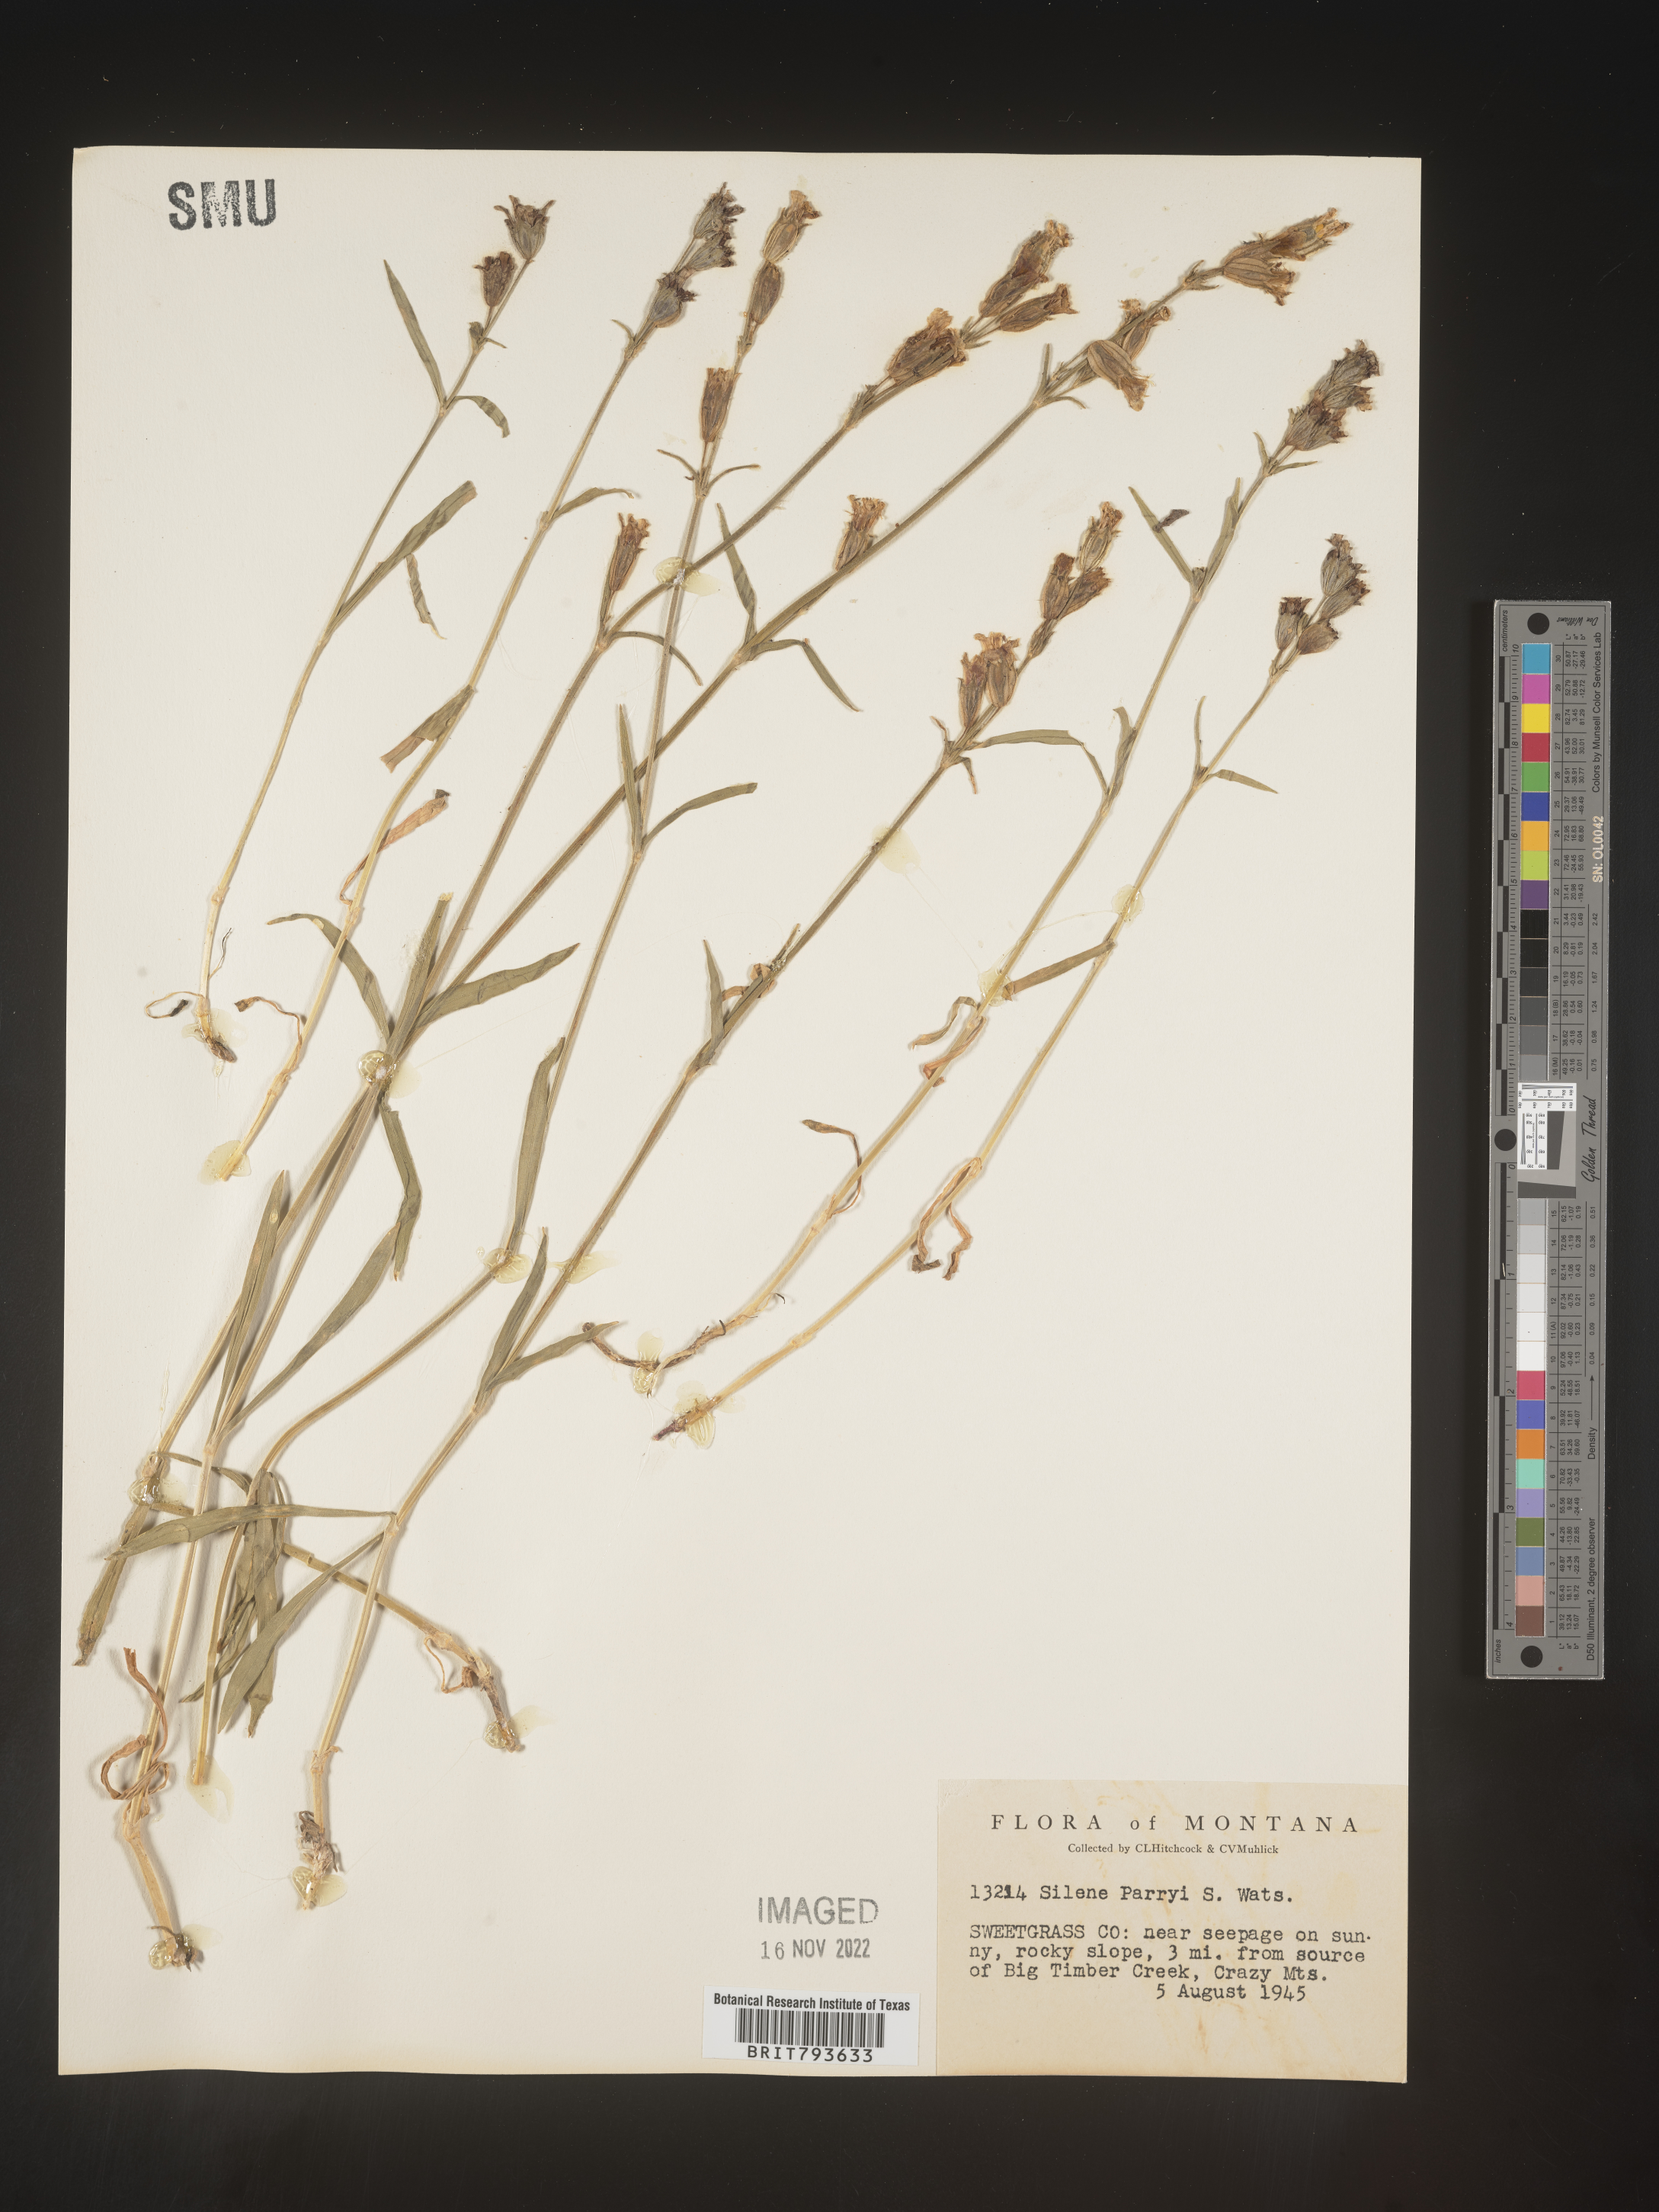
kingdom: Plantae
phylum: Tracheophyta
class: Magnoliopsida
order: Caryophyllales
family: Caryophyllaceae
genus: Silene
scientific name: Silene parryi
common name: Parry's campion
